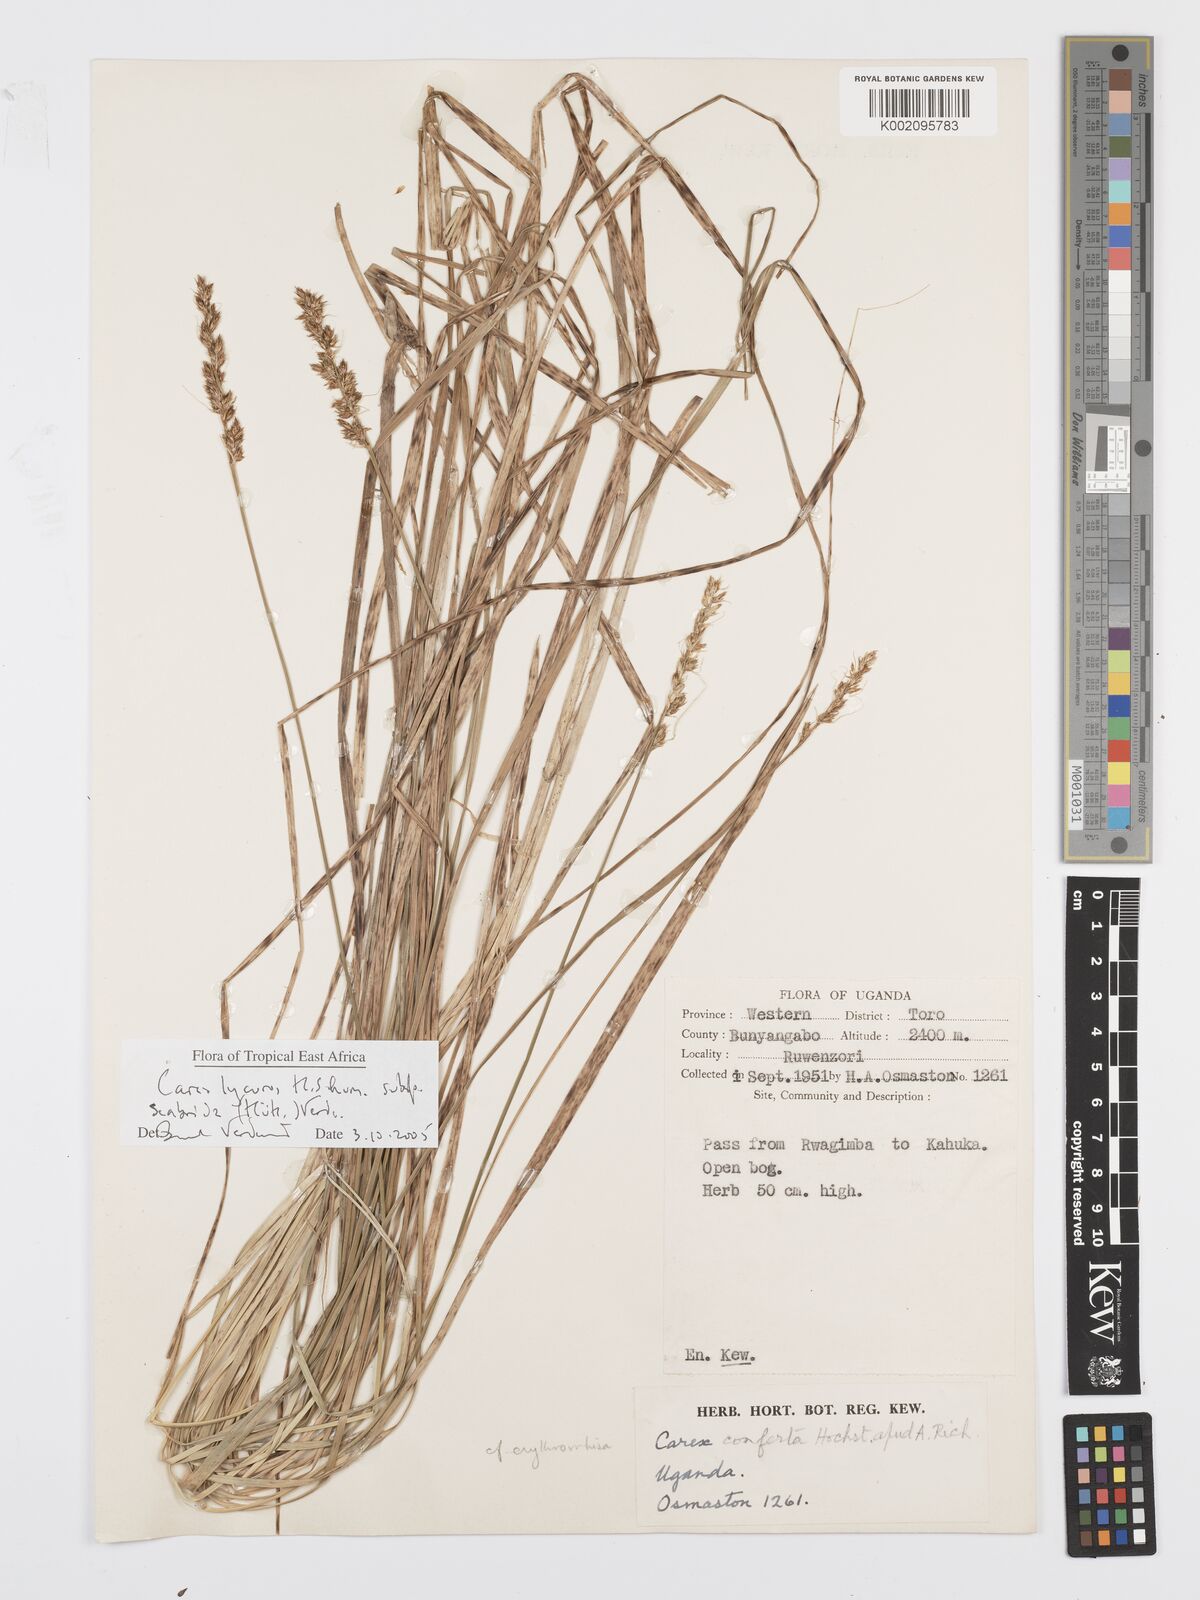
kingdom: Plantae
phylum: Tracheophyta
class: Liliopsida
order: Poales
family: Cyperaceae
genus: Carex
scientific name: Carex lycurus
